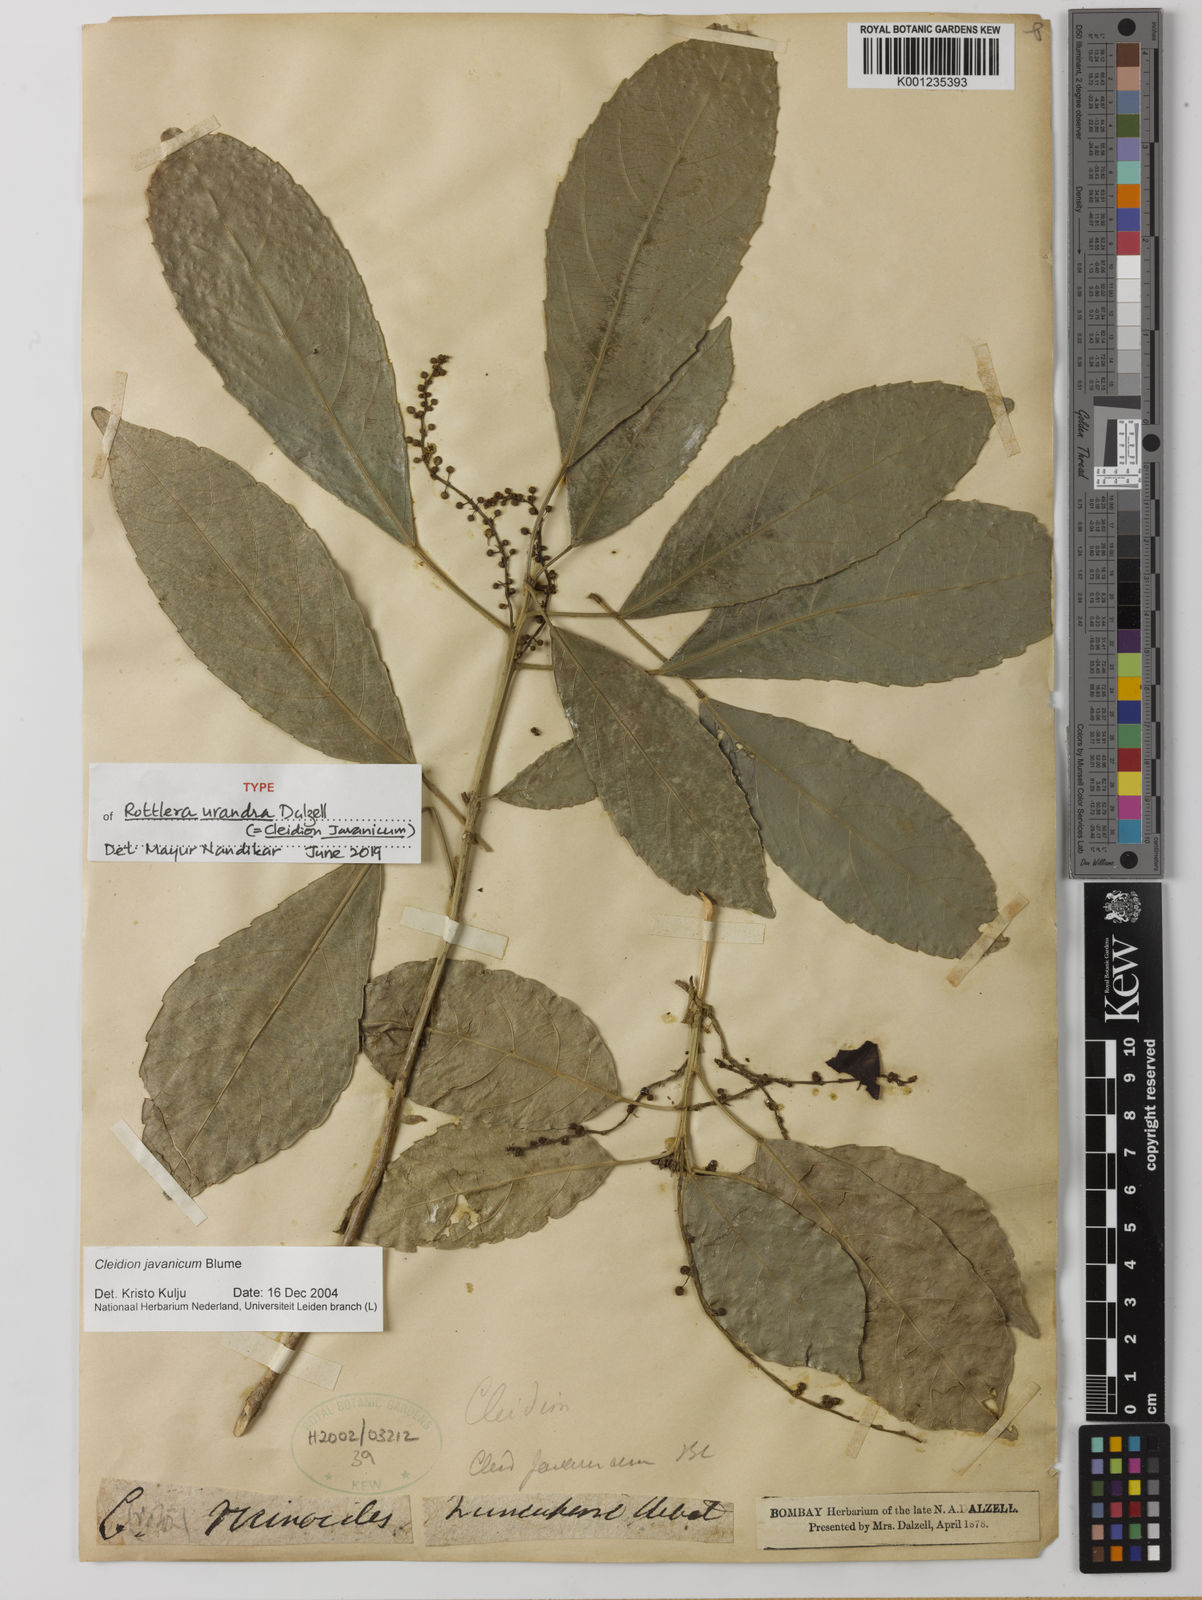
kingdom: Plantae
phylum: Tracheophyta
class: Magnoliopsida
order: Malpighiales
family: Euphorbiaceae
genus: Cleidion
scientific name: Cleidion javanicum
